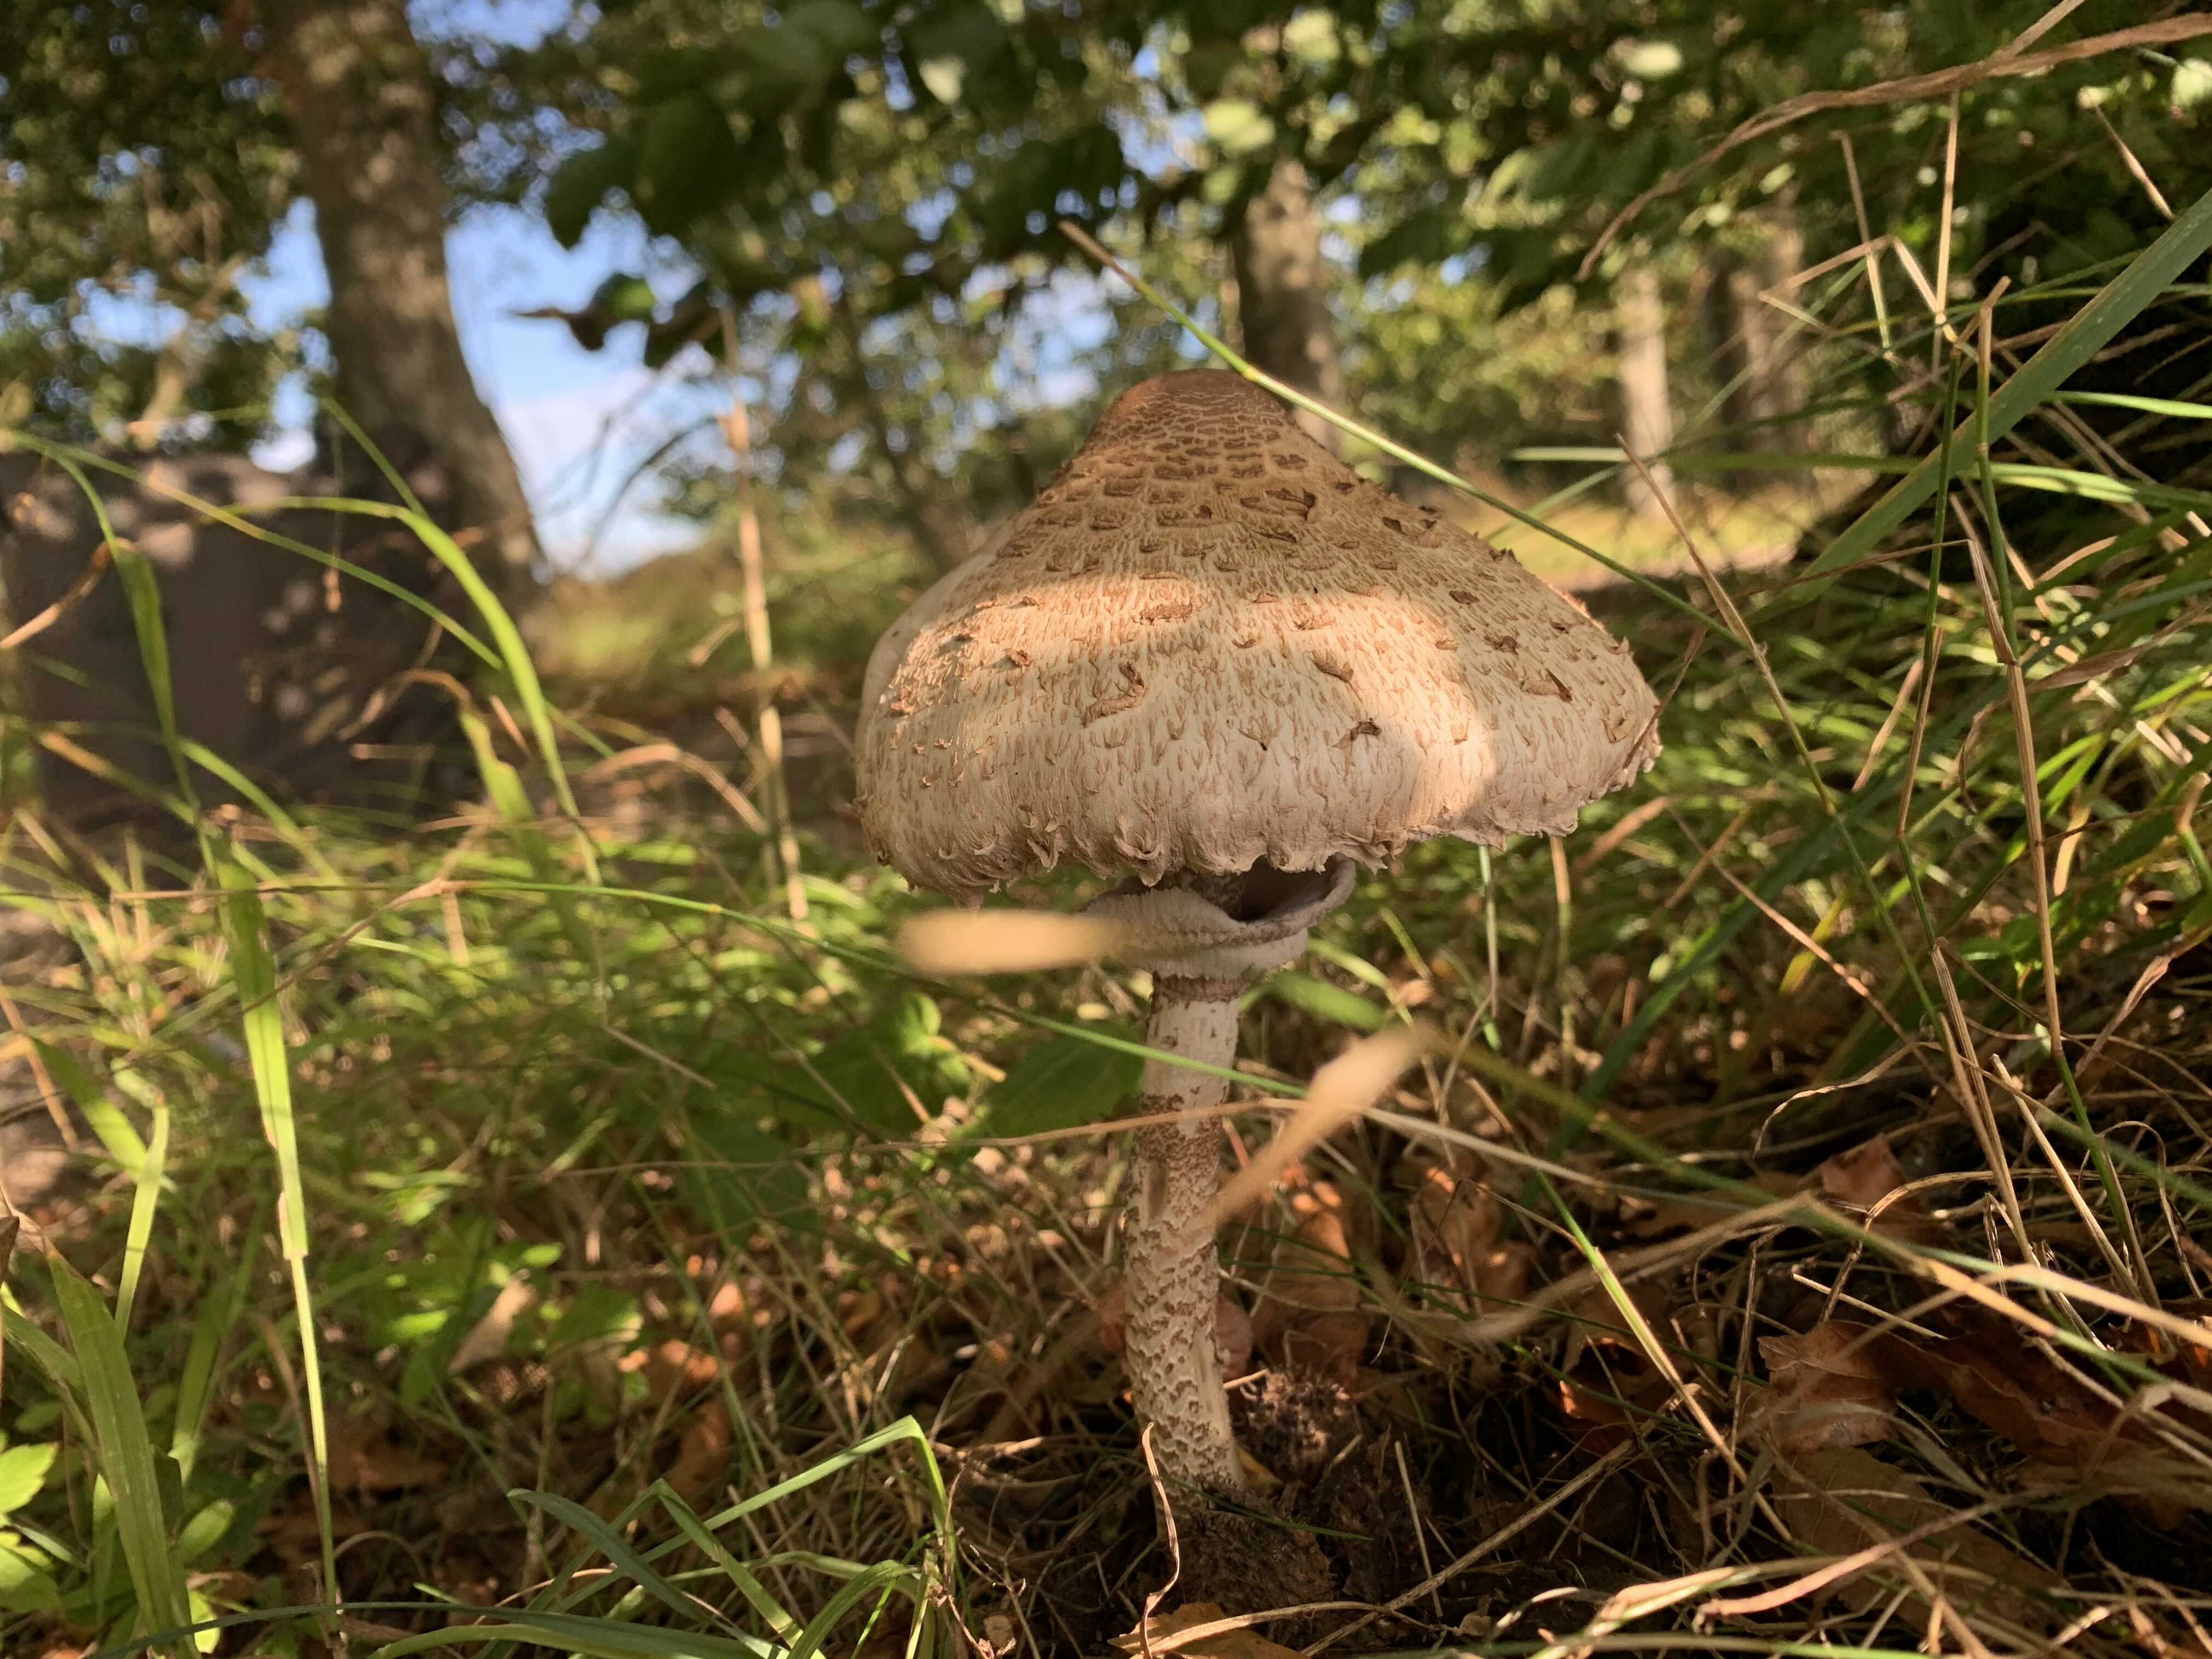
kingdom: Fungi
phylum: Basidiomycota
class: Agaricomycetes
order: Agaricales
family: Agaricaceae
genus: Macrolepiota
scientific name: Macrolepiota procera
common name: stor kæmpeparasolhat
